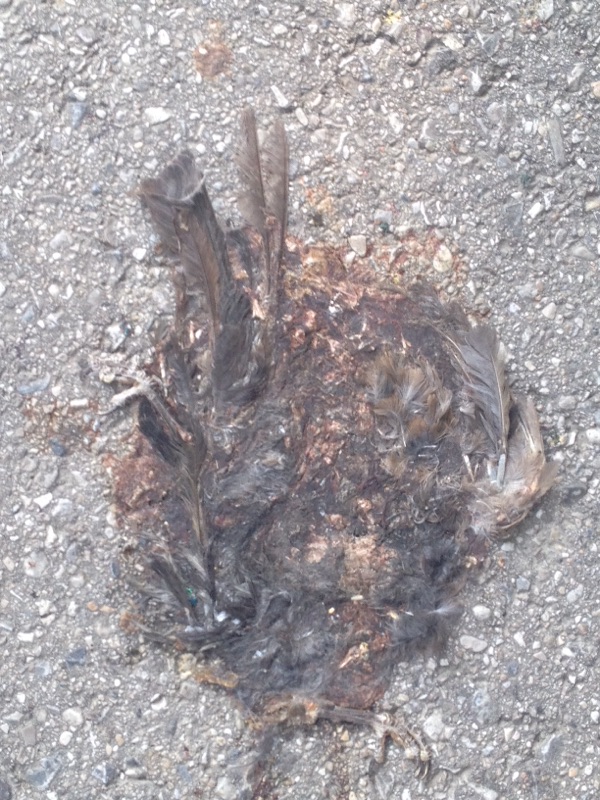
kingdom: Animalia
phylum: Chordata
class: Aves
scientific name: Aves
